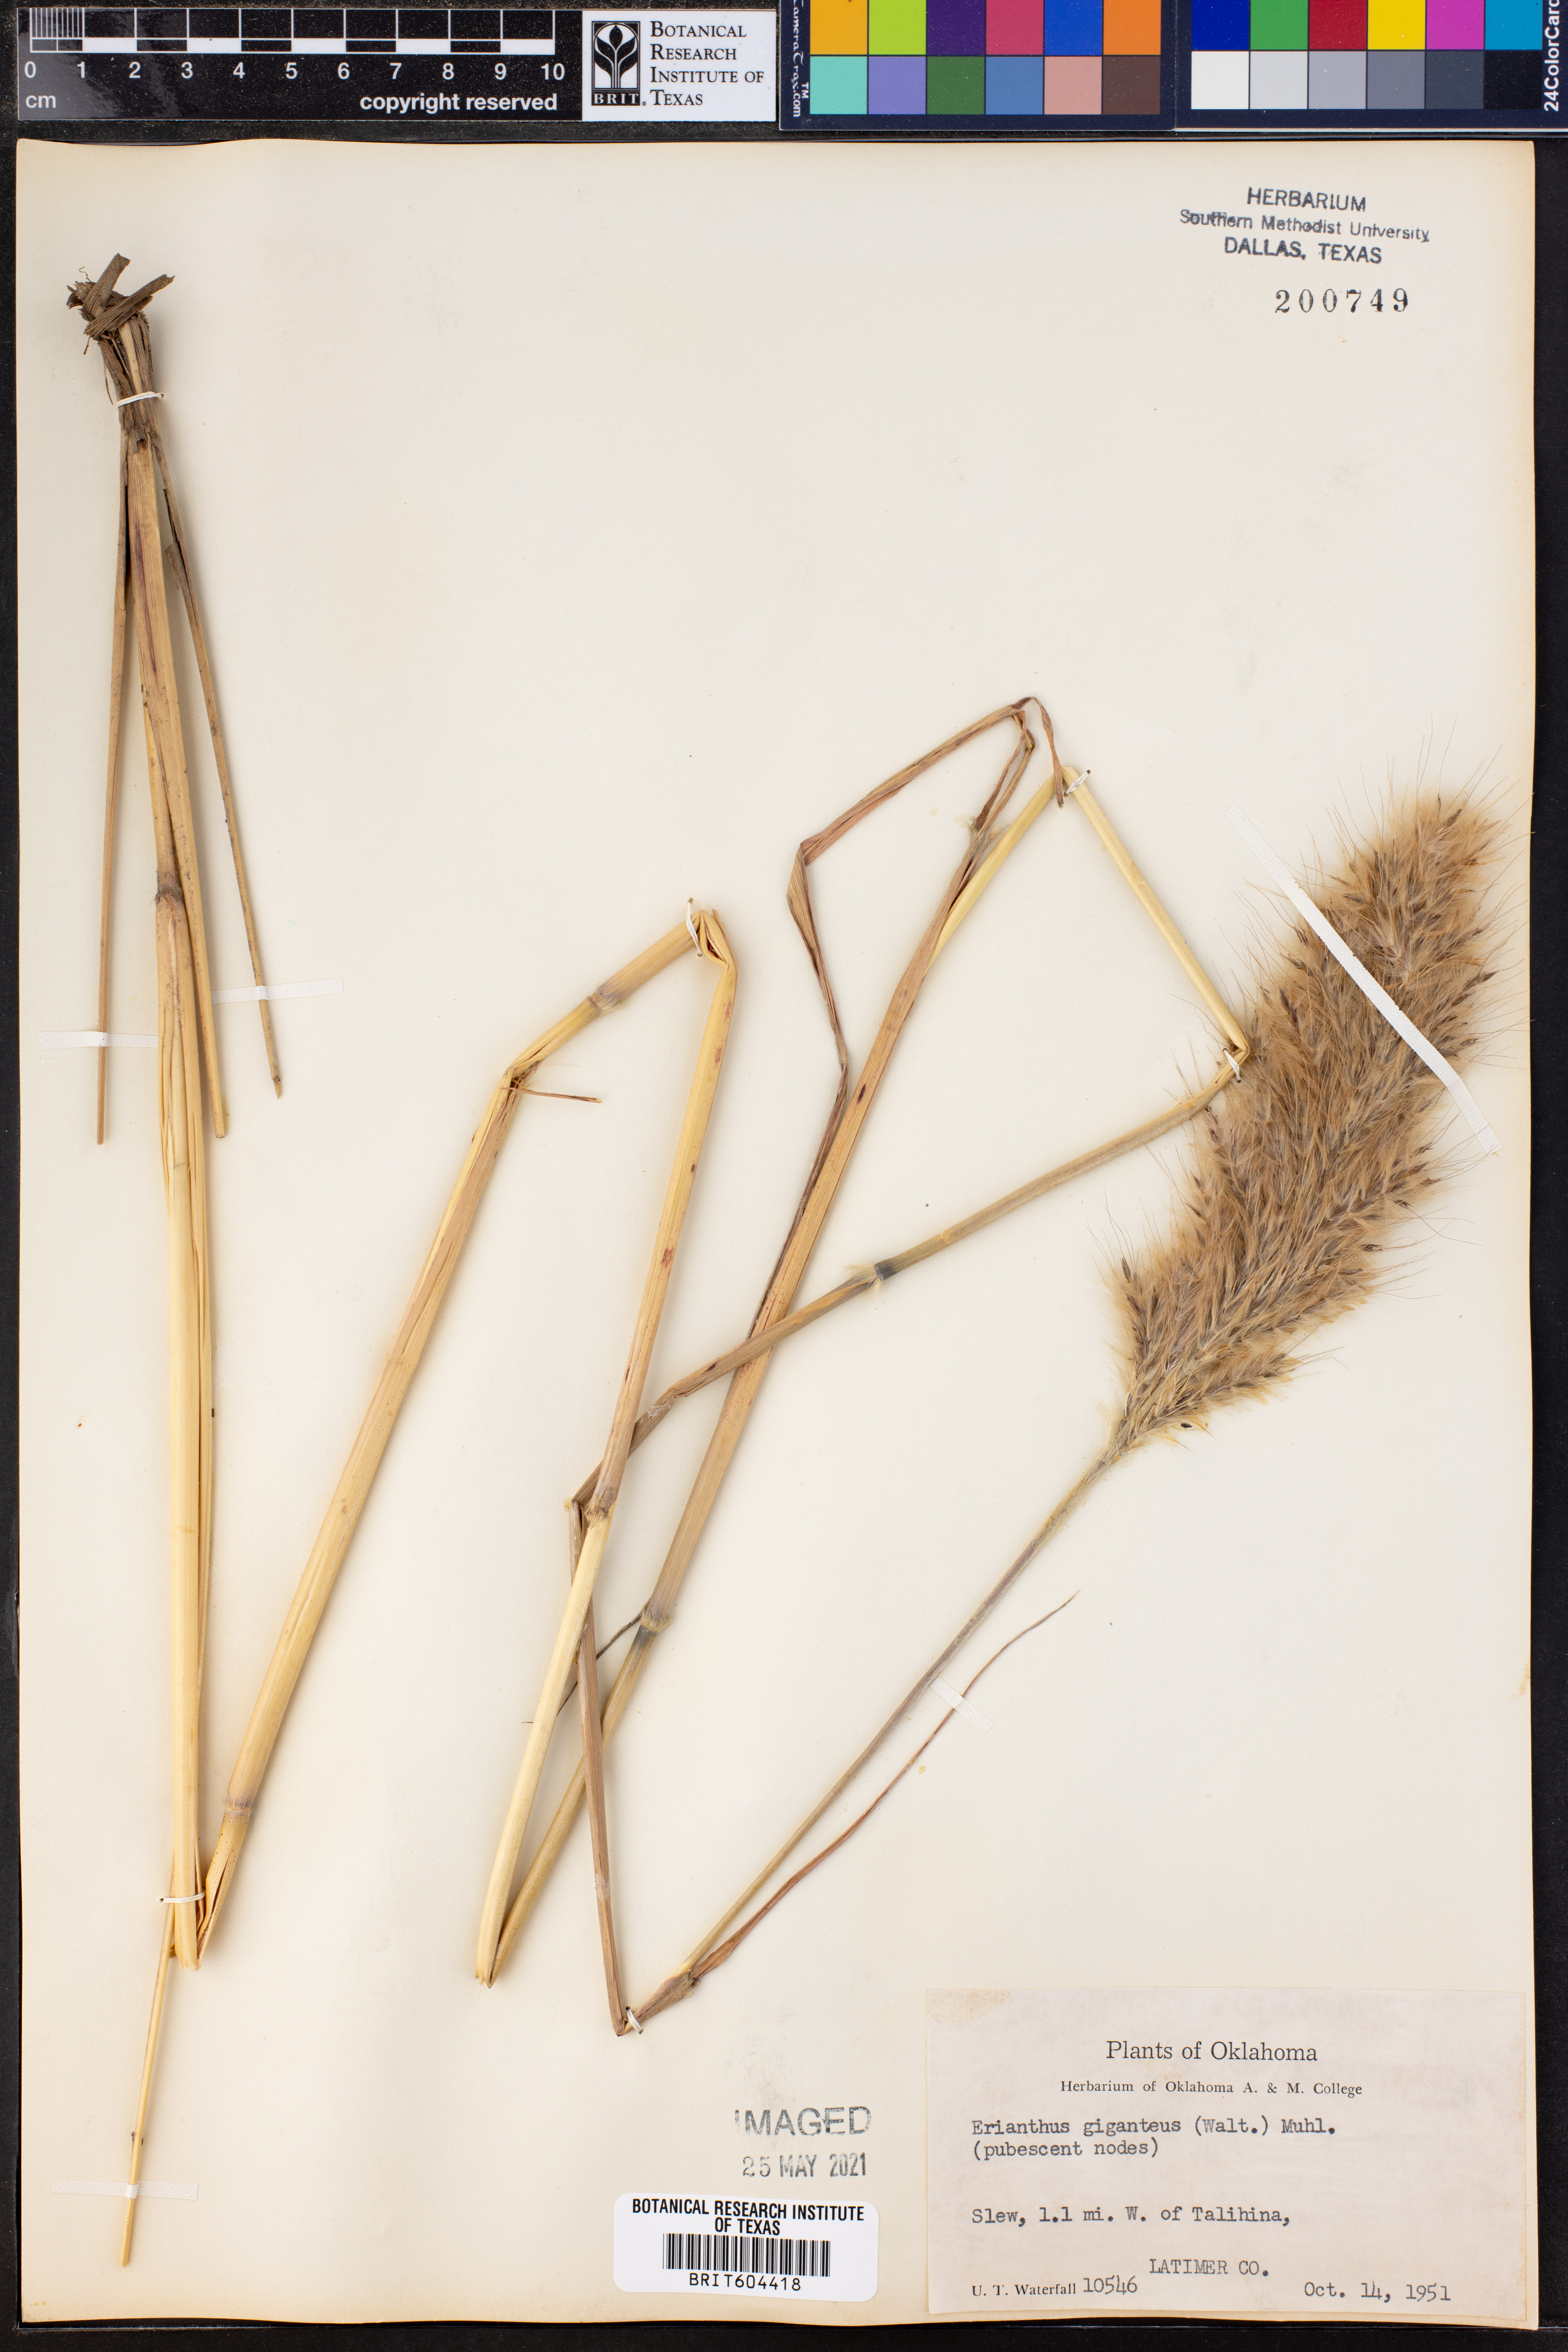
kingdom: Plantae
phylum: Tracheophyta
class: Liliopsida
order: Poales
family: Poaceae
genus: Erianthus
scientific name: Erianthus giganteus
